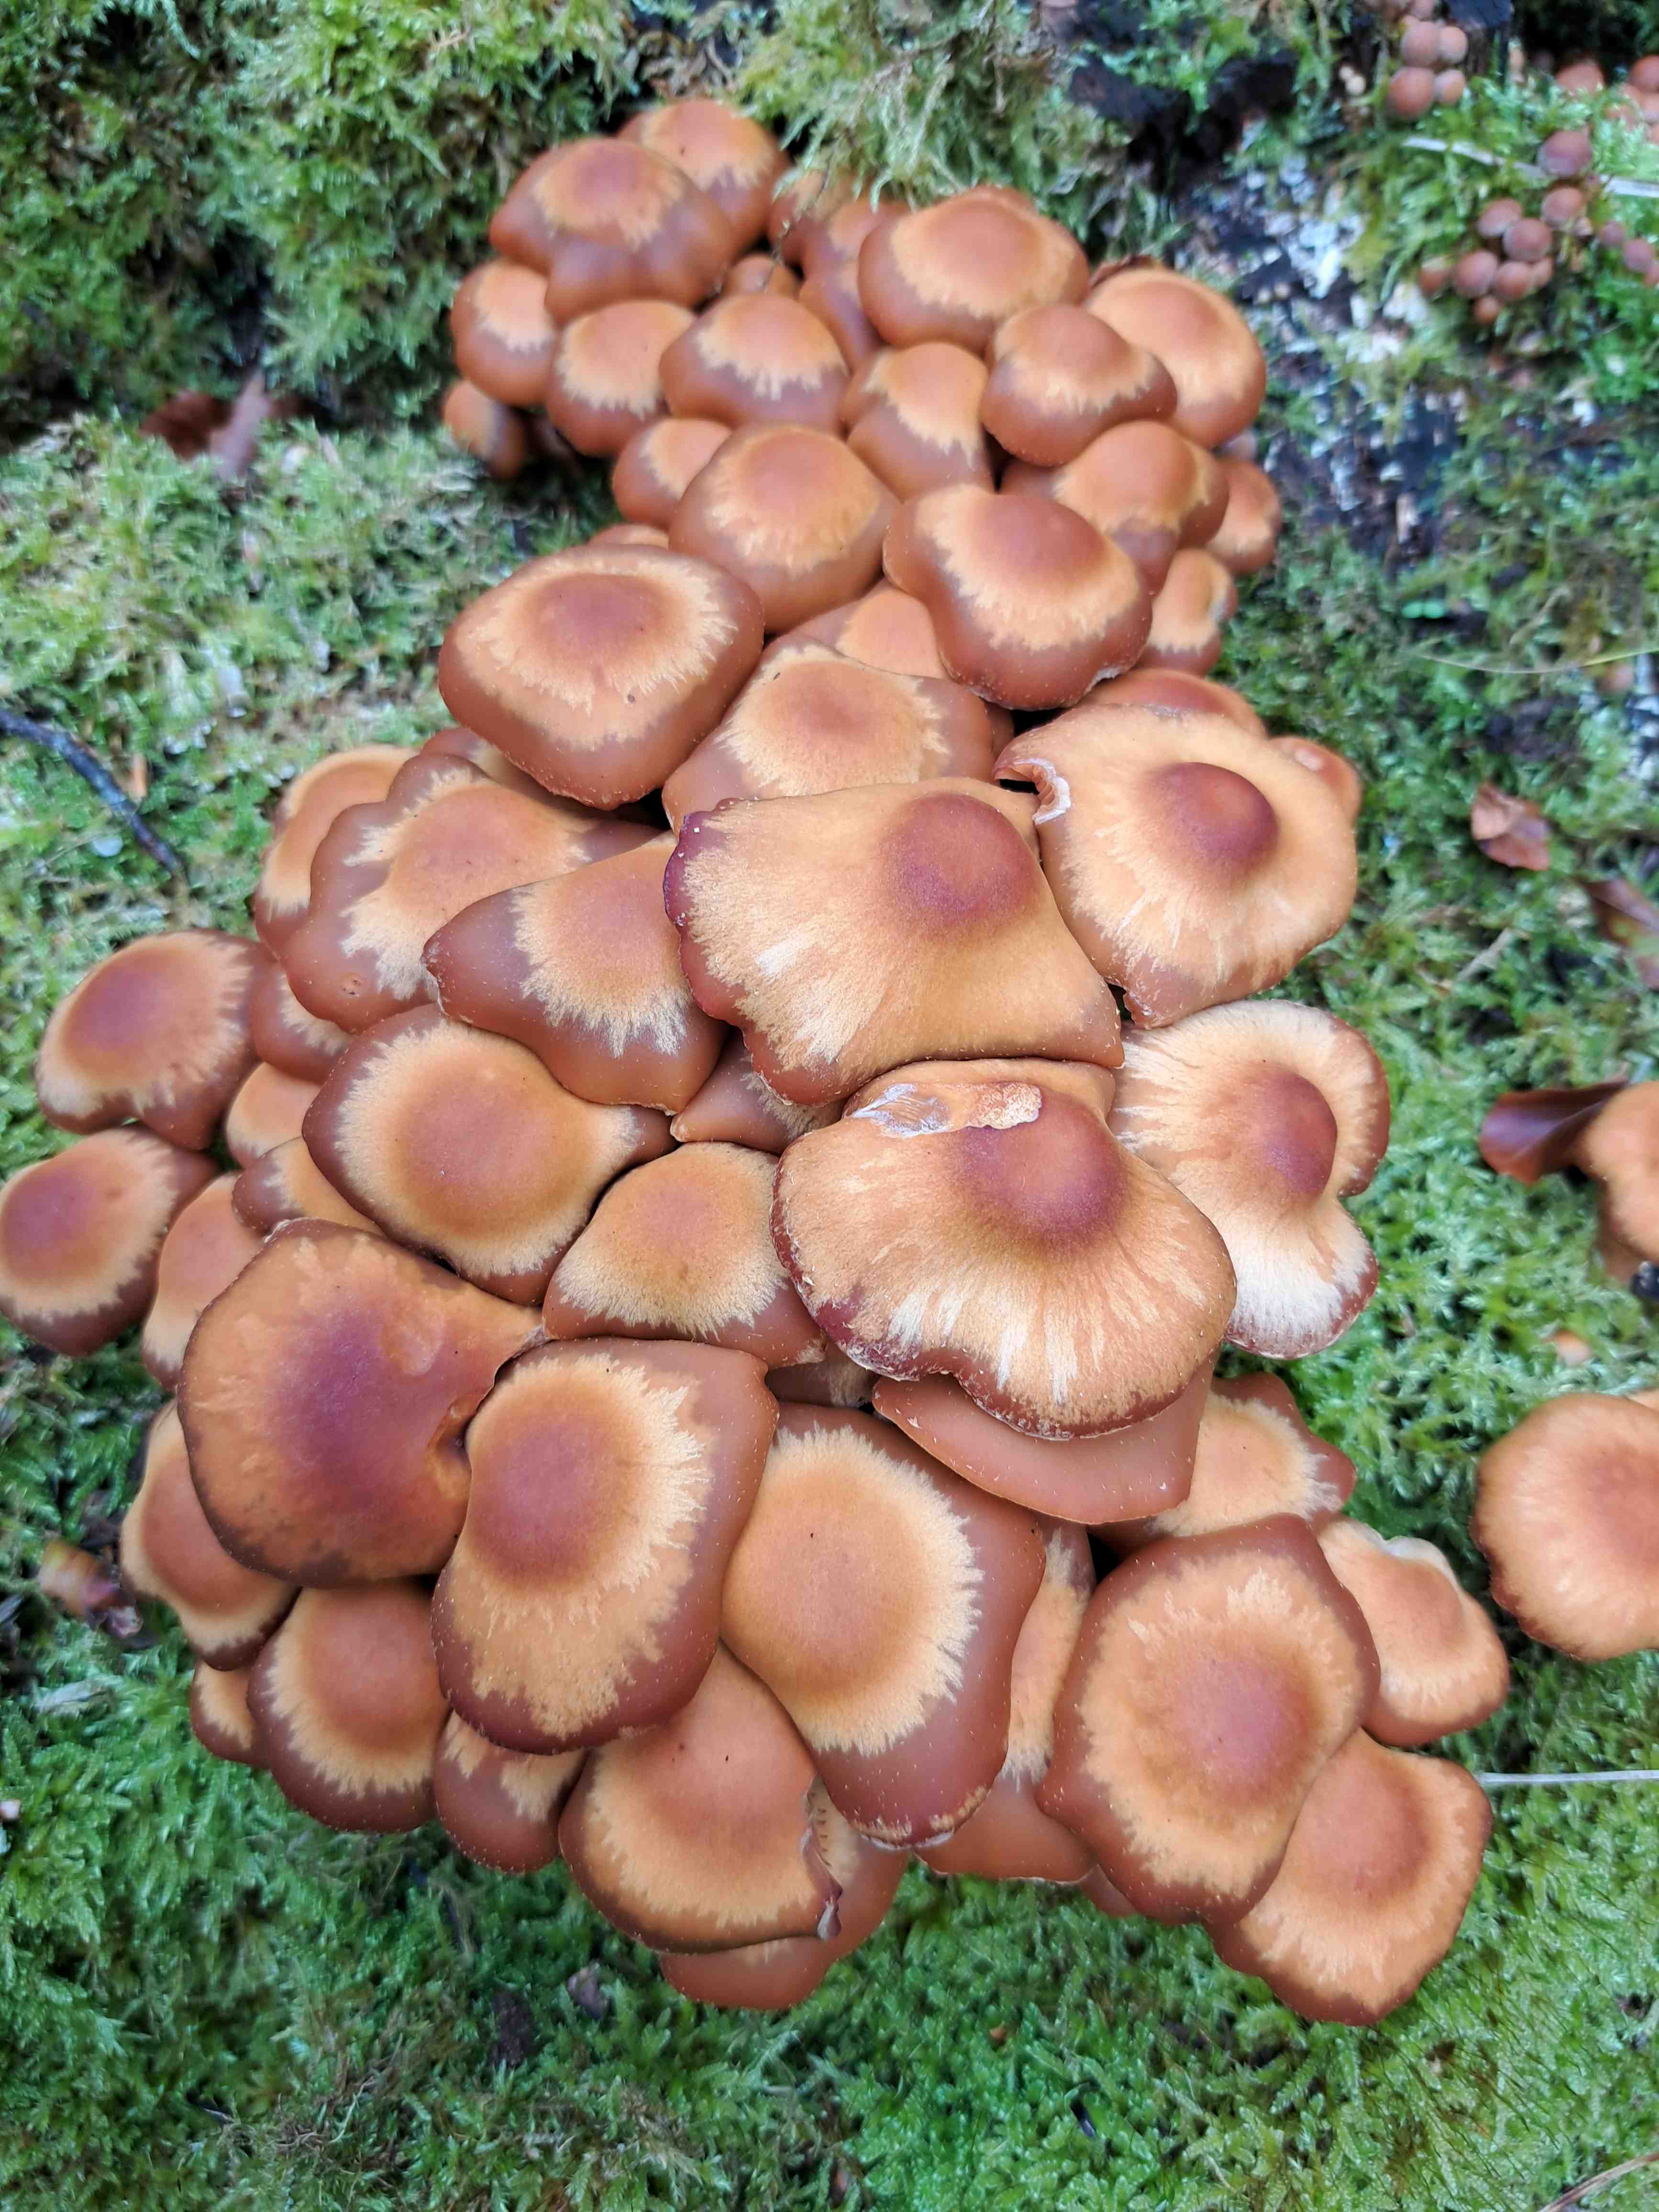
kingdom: Fungi
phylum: Basidiomycota
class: Agaricomycetes
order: Agaricales
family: Strophariaceae
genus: Kuehneromyces
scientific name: Kuehneromyces mutabilis
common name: foranderlig skælhat
